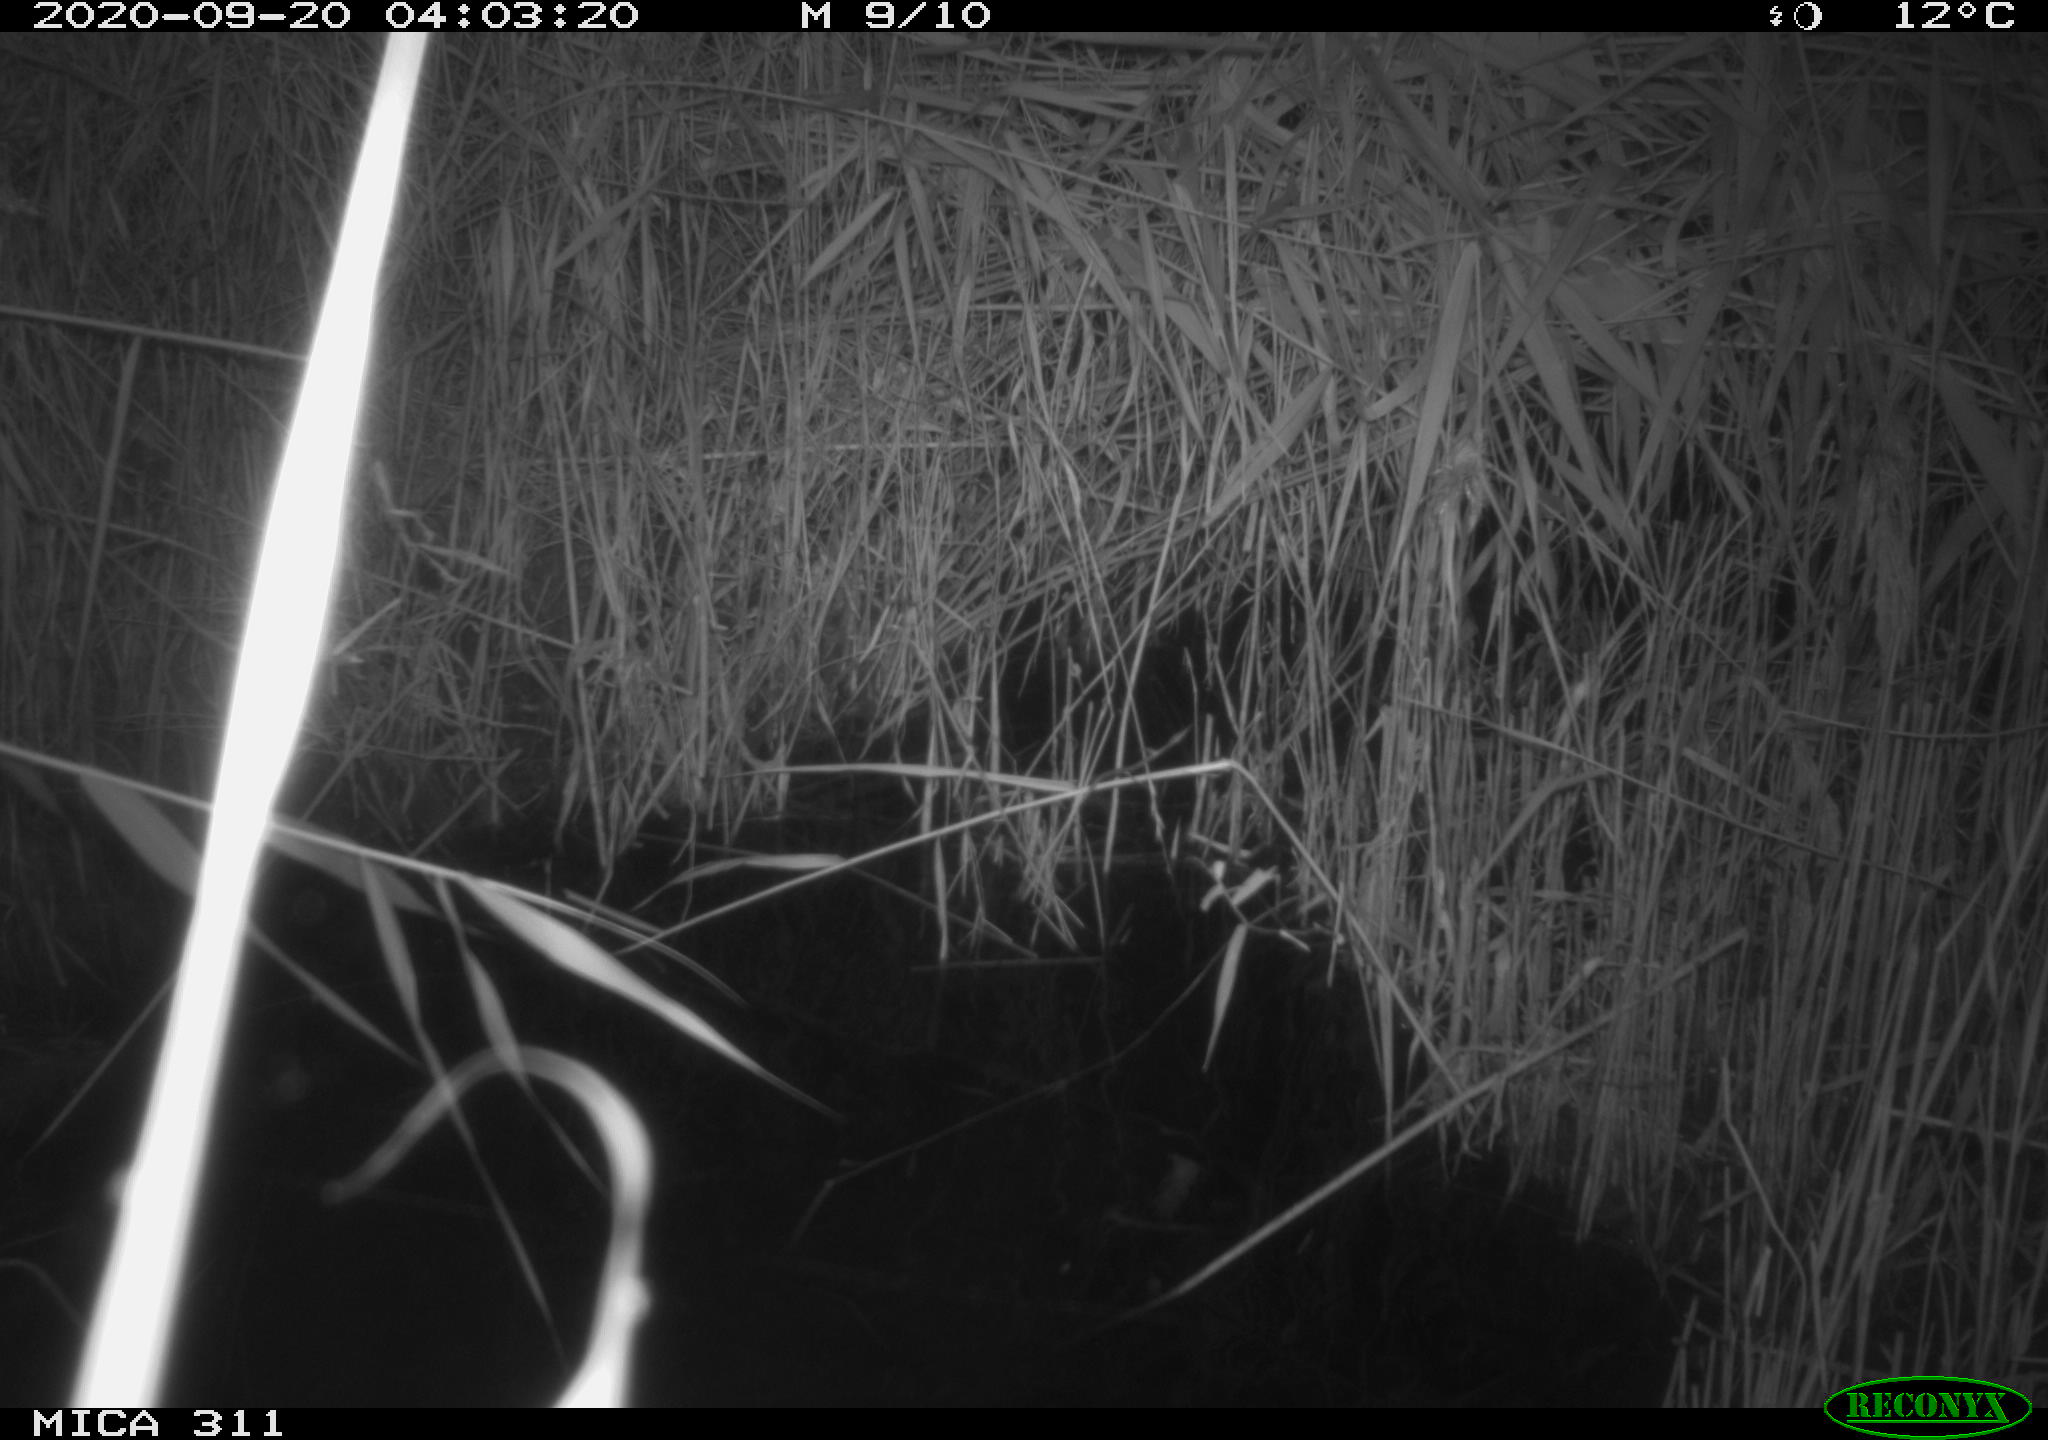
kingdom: Animalia
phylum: Chordata
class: Mammalia
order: Rodentia
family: Muridae
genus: Rattus
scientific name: Rattus norvegicus
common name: Brown rat
